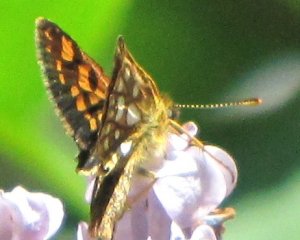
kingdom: Animalia
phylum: Arthropoda
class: Insecta
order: Lepidoptera
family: Hesperiidae
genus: Carterocephalus
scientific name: Carterocephalus palaemon
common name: Chequered Skipper
